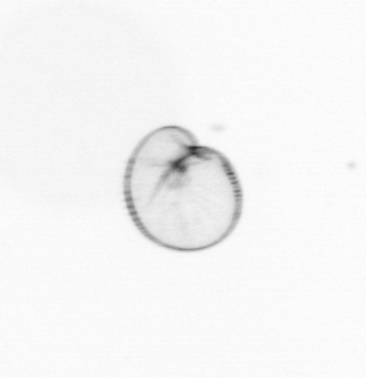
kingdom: Chromista
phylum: Myzozoa
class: Dinophyceae
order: Noctilucales
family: Noctilucaceae
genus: Noctiluca
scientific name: Noctiluca scintillans
